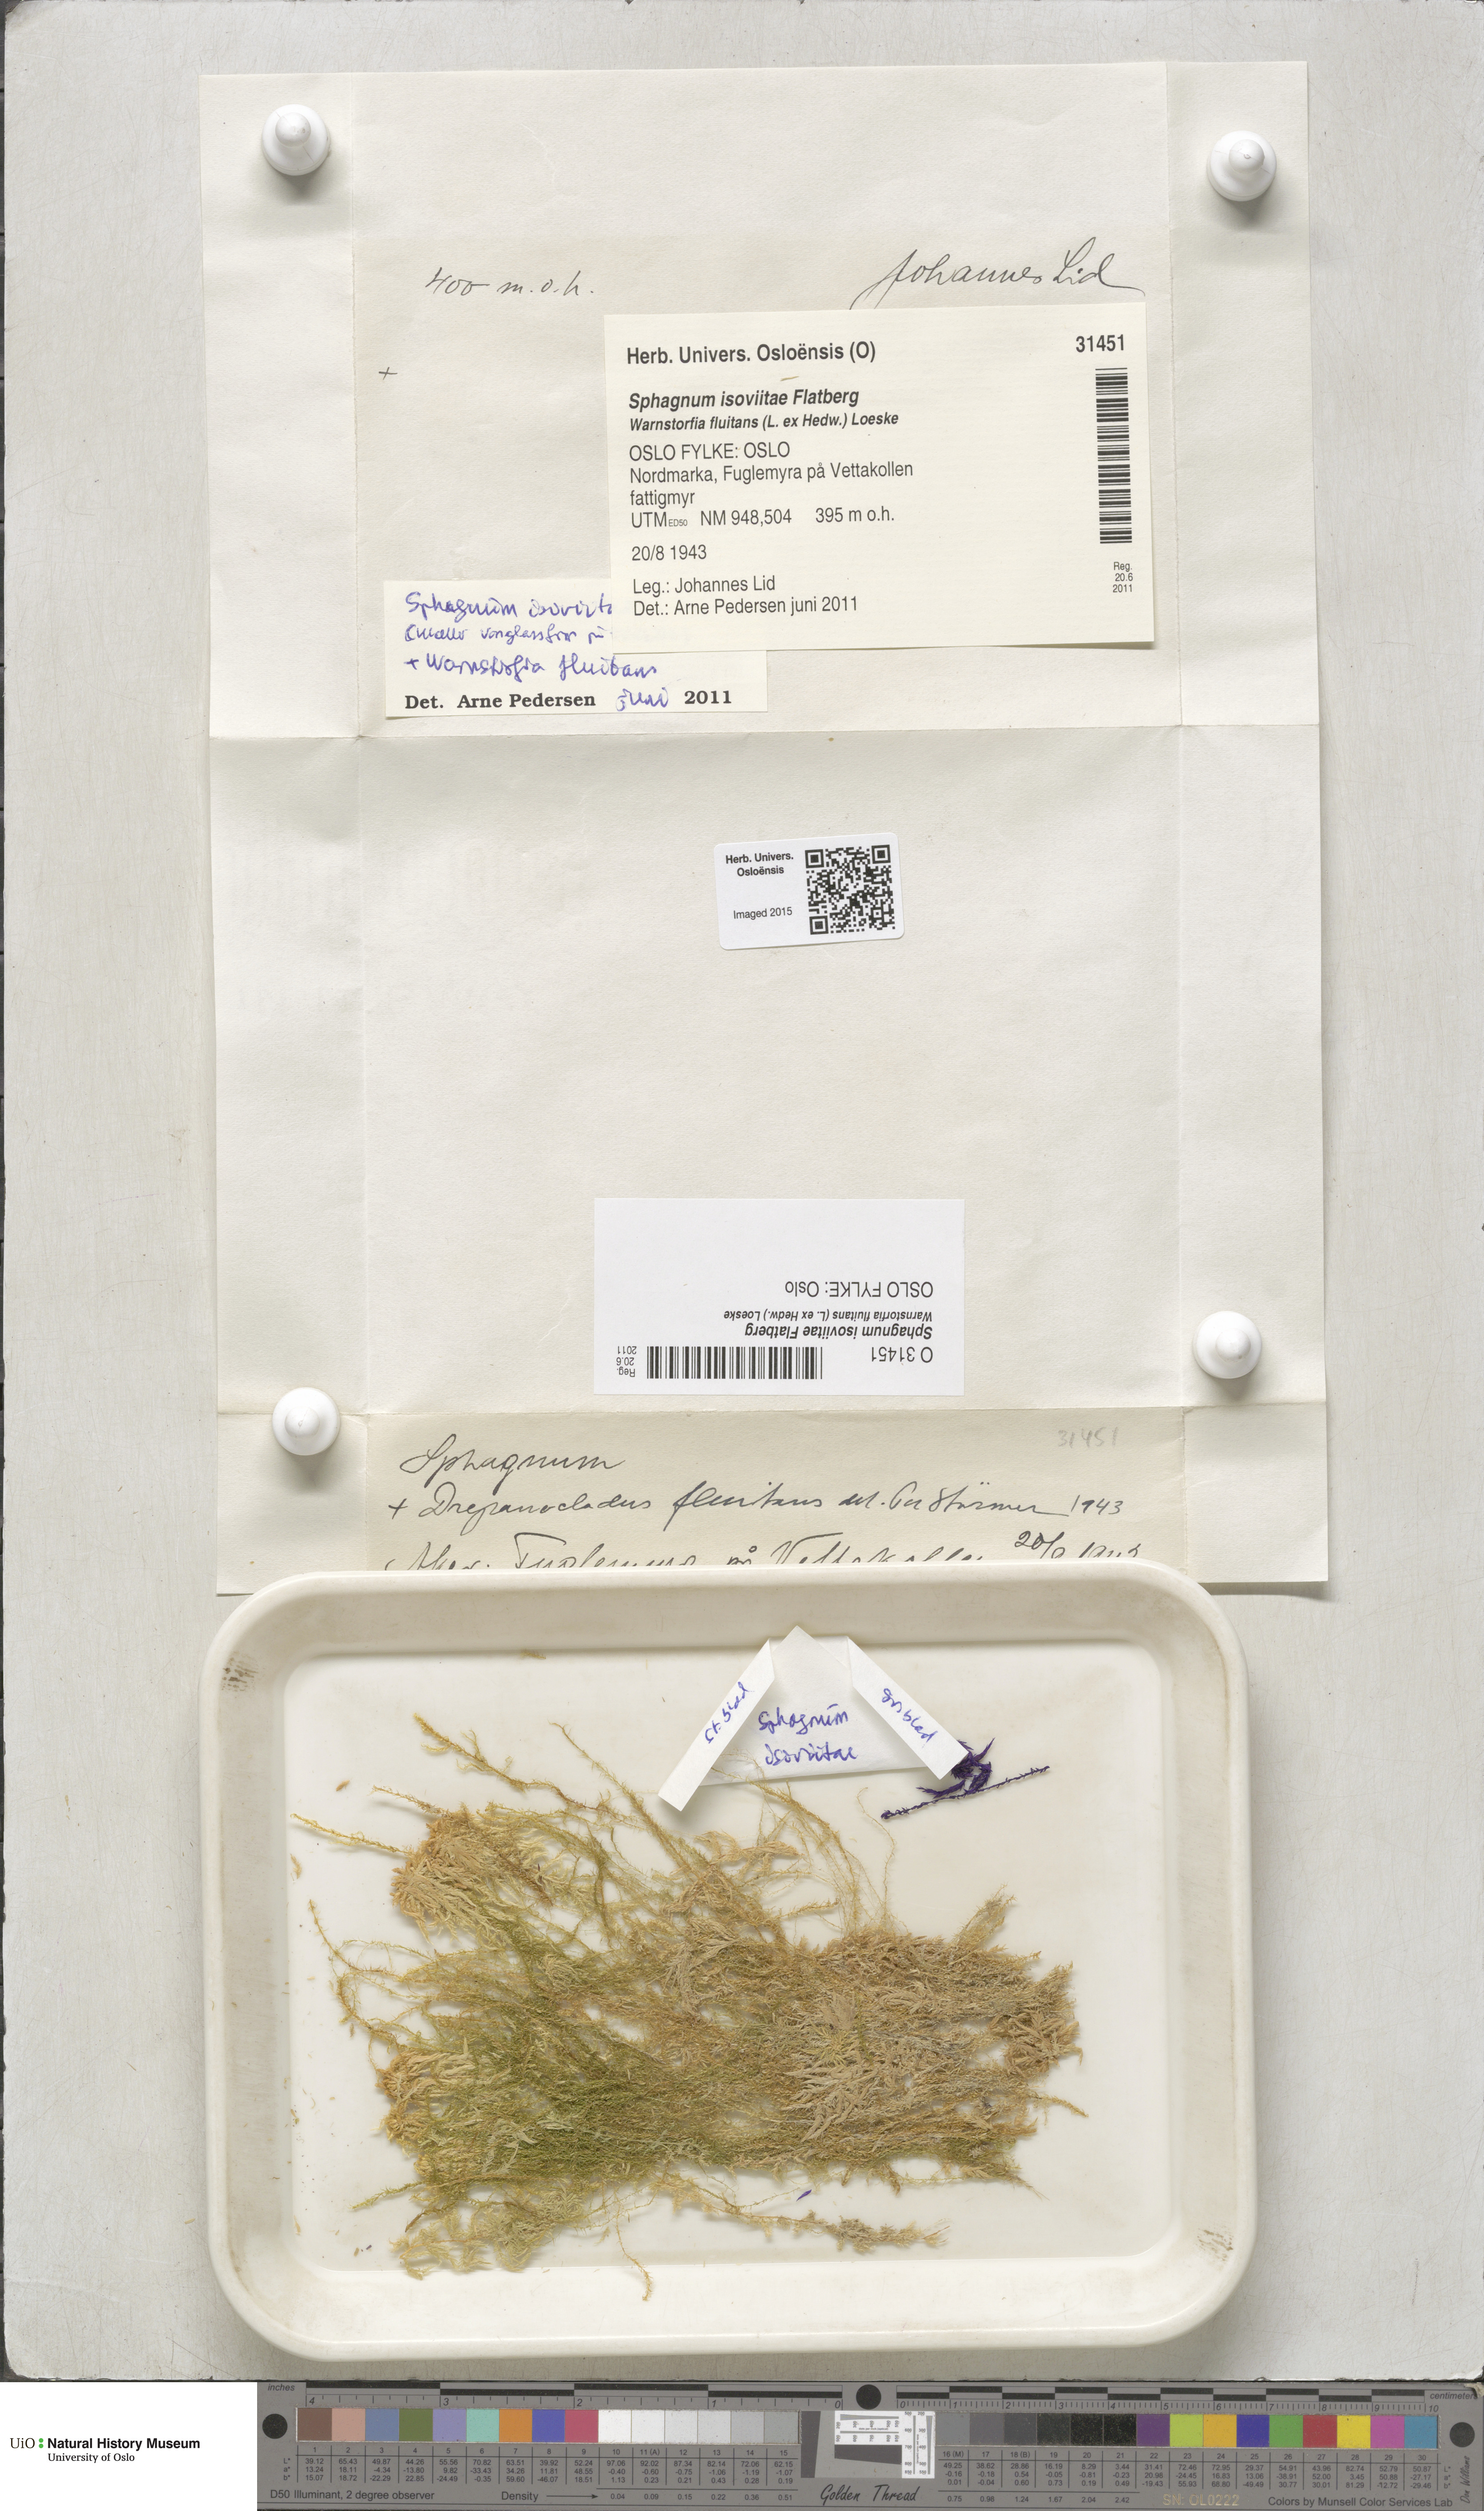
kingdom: Plantae
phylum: Bryophyta
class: Sphagnopsida
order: Sphagnales
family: Sphagnaceae
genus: Sphagnum
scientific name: Sphagnum fallax
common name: Flat-top peat moss
